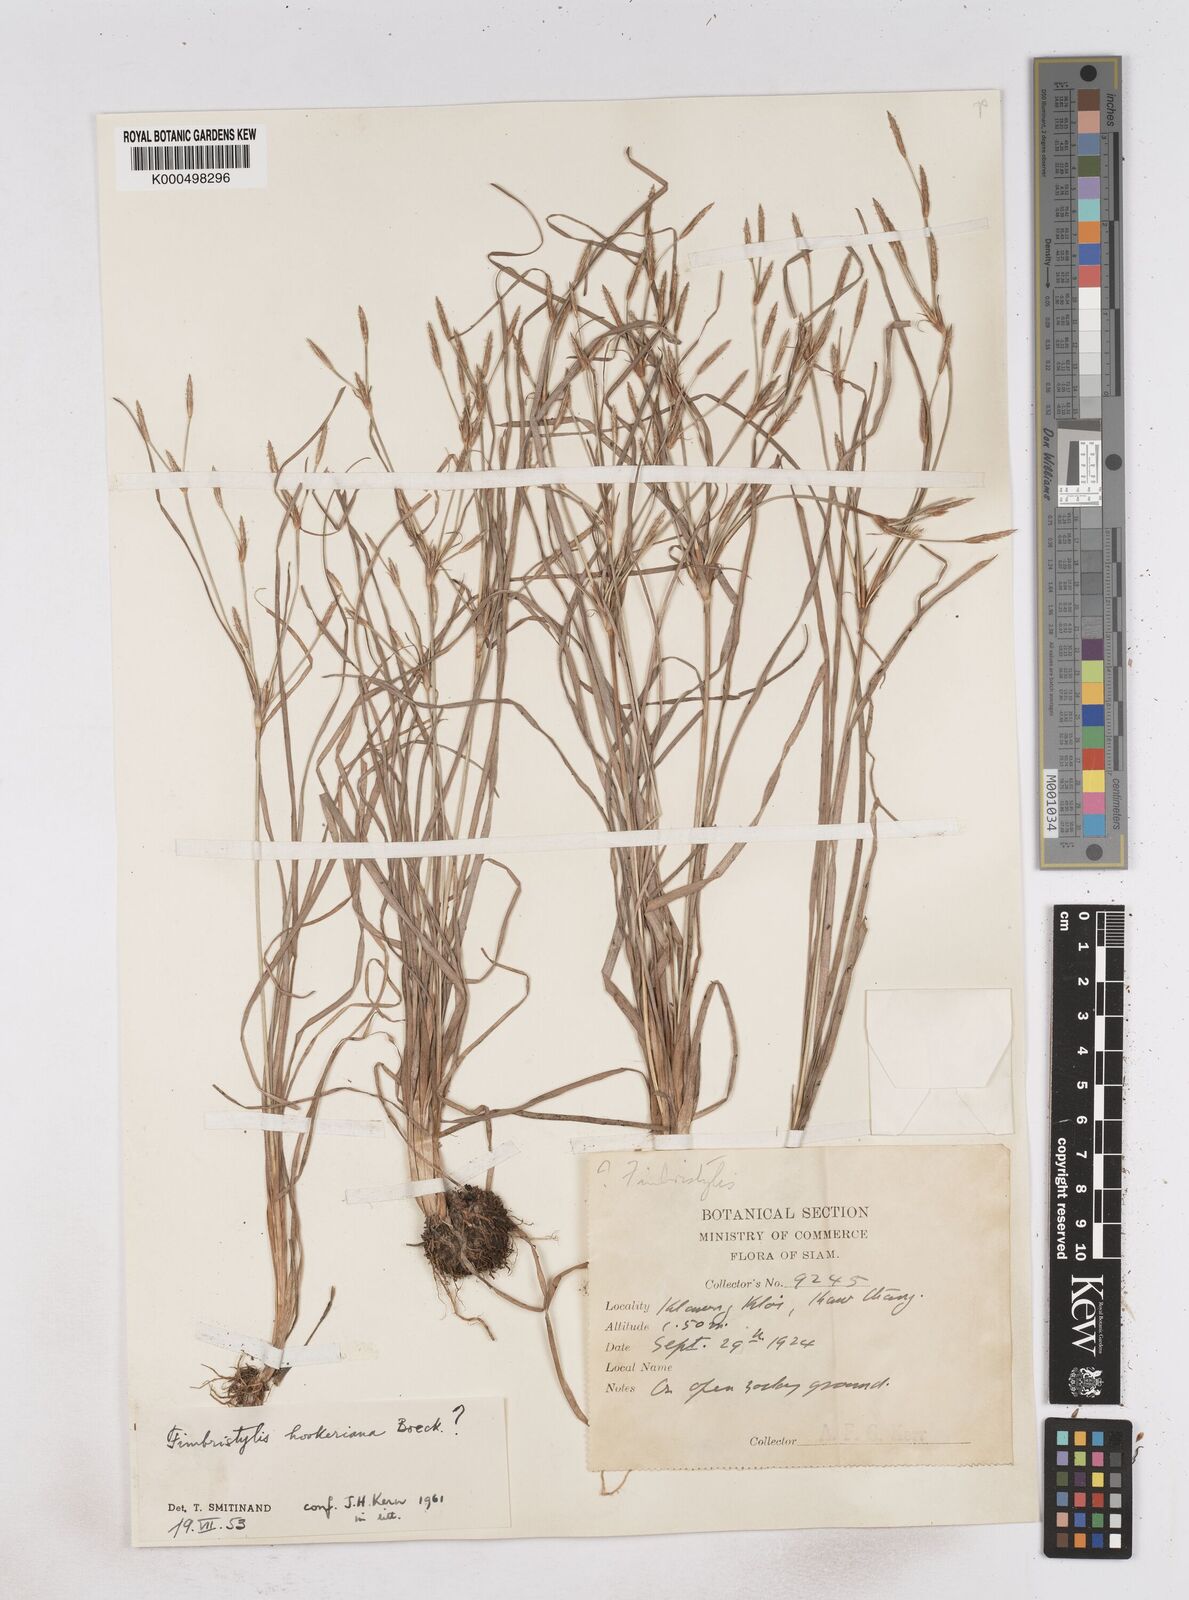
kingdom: Plantae
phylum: Tracheophyta
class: Liliopsida
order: Poales
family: Cyperaceae
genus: Fimbristylis
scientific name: Fimbristylis hookeriana
